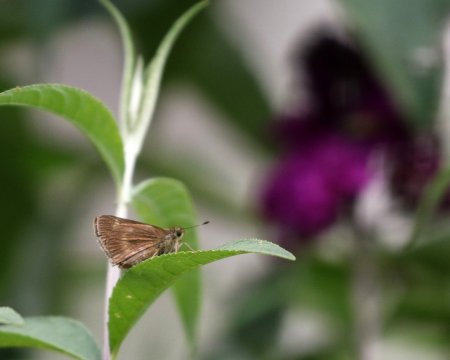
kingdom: Animalia
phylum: Arthropoda
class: Insecta
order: Lepidoptera
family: Hesperiidae
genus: Polites
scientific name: Polites egeremet
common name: Northern Broken-Dash
